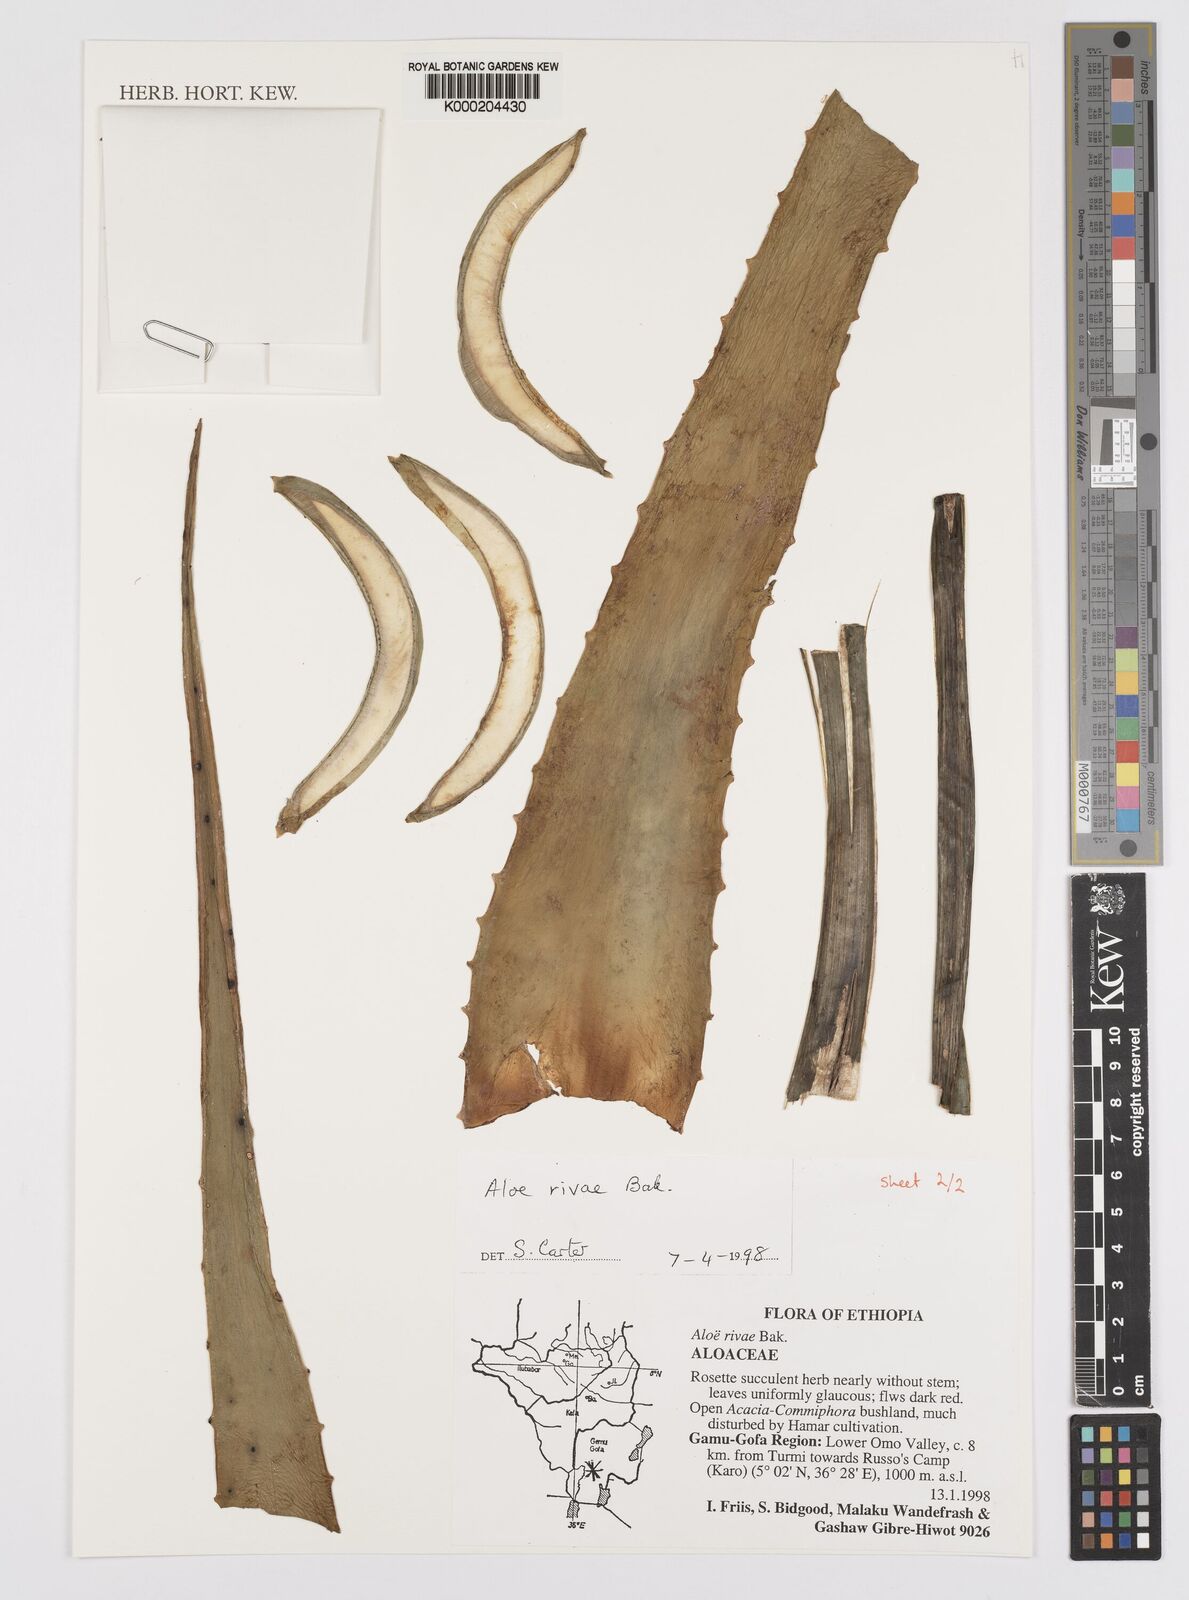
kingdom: Plantae
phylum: Tracheophyta
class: Liliopsida
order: Asparagales
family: Asphodelaceae
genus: Aloe
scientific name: Aloe rivae
